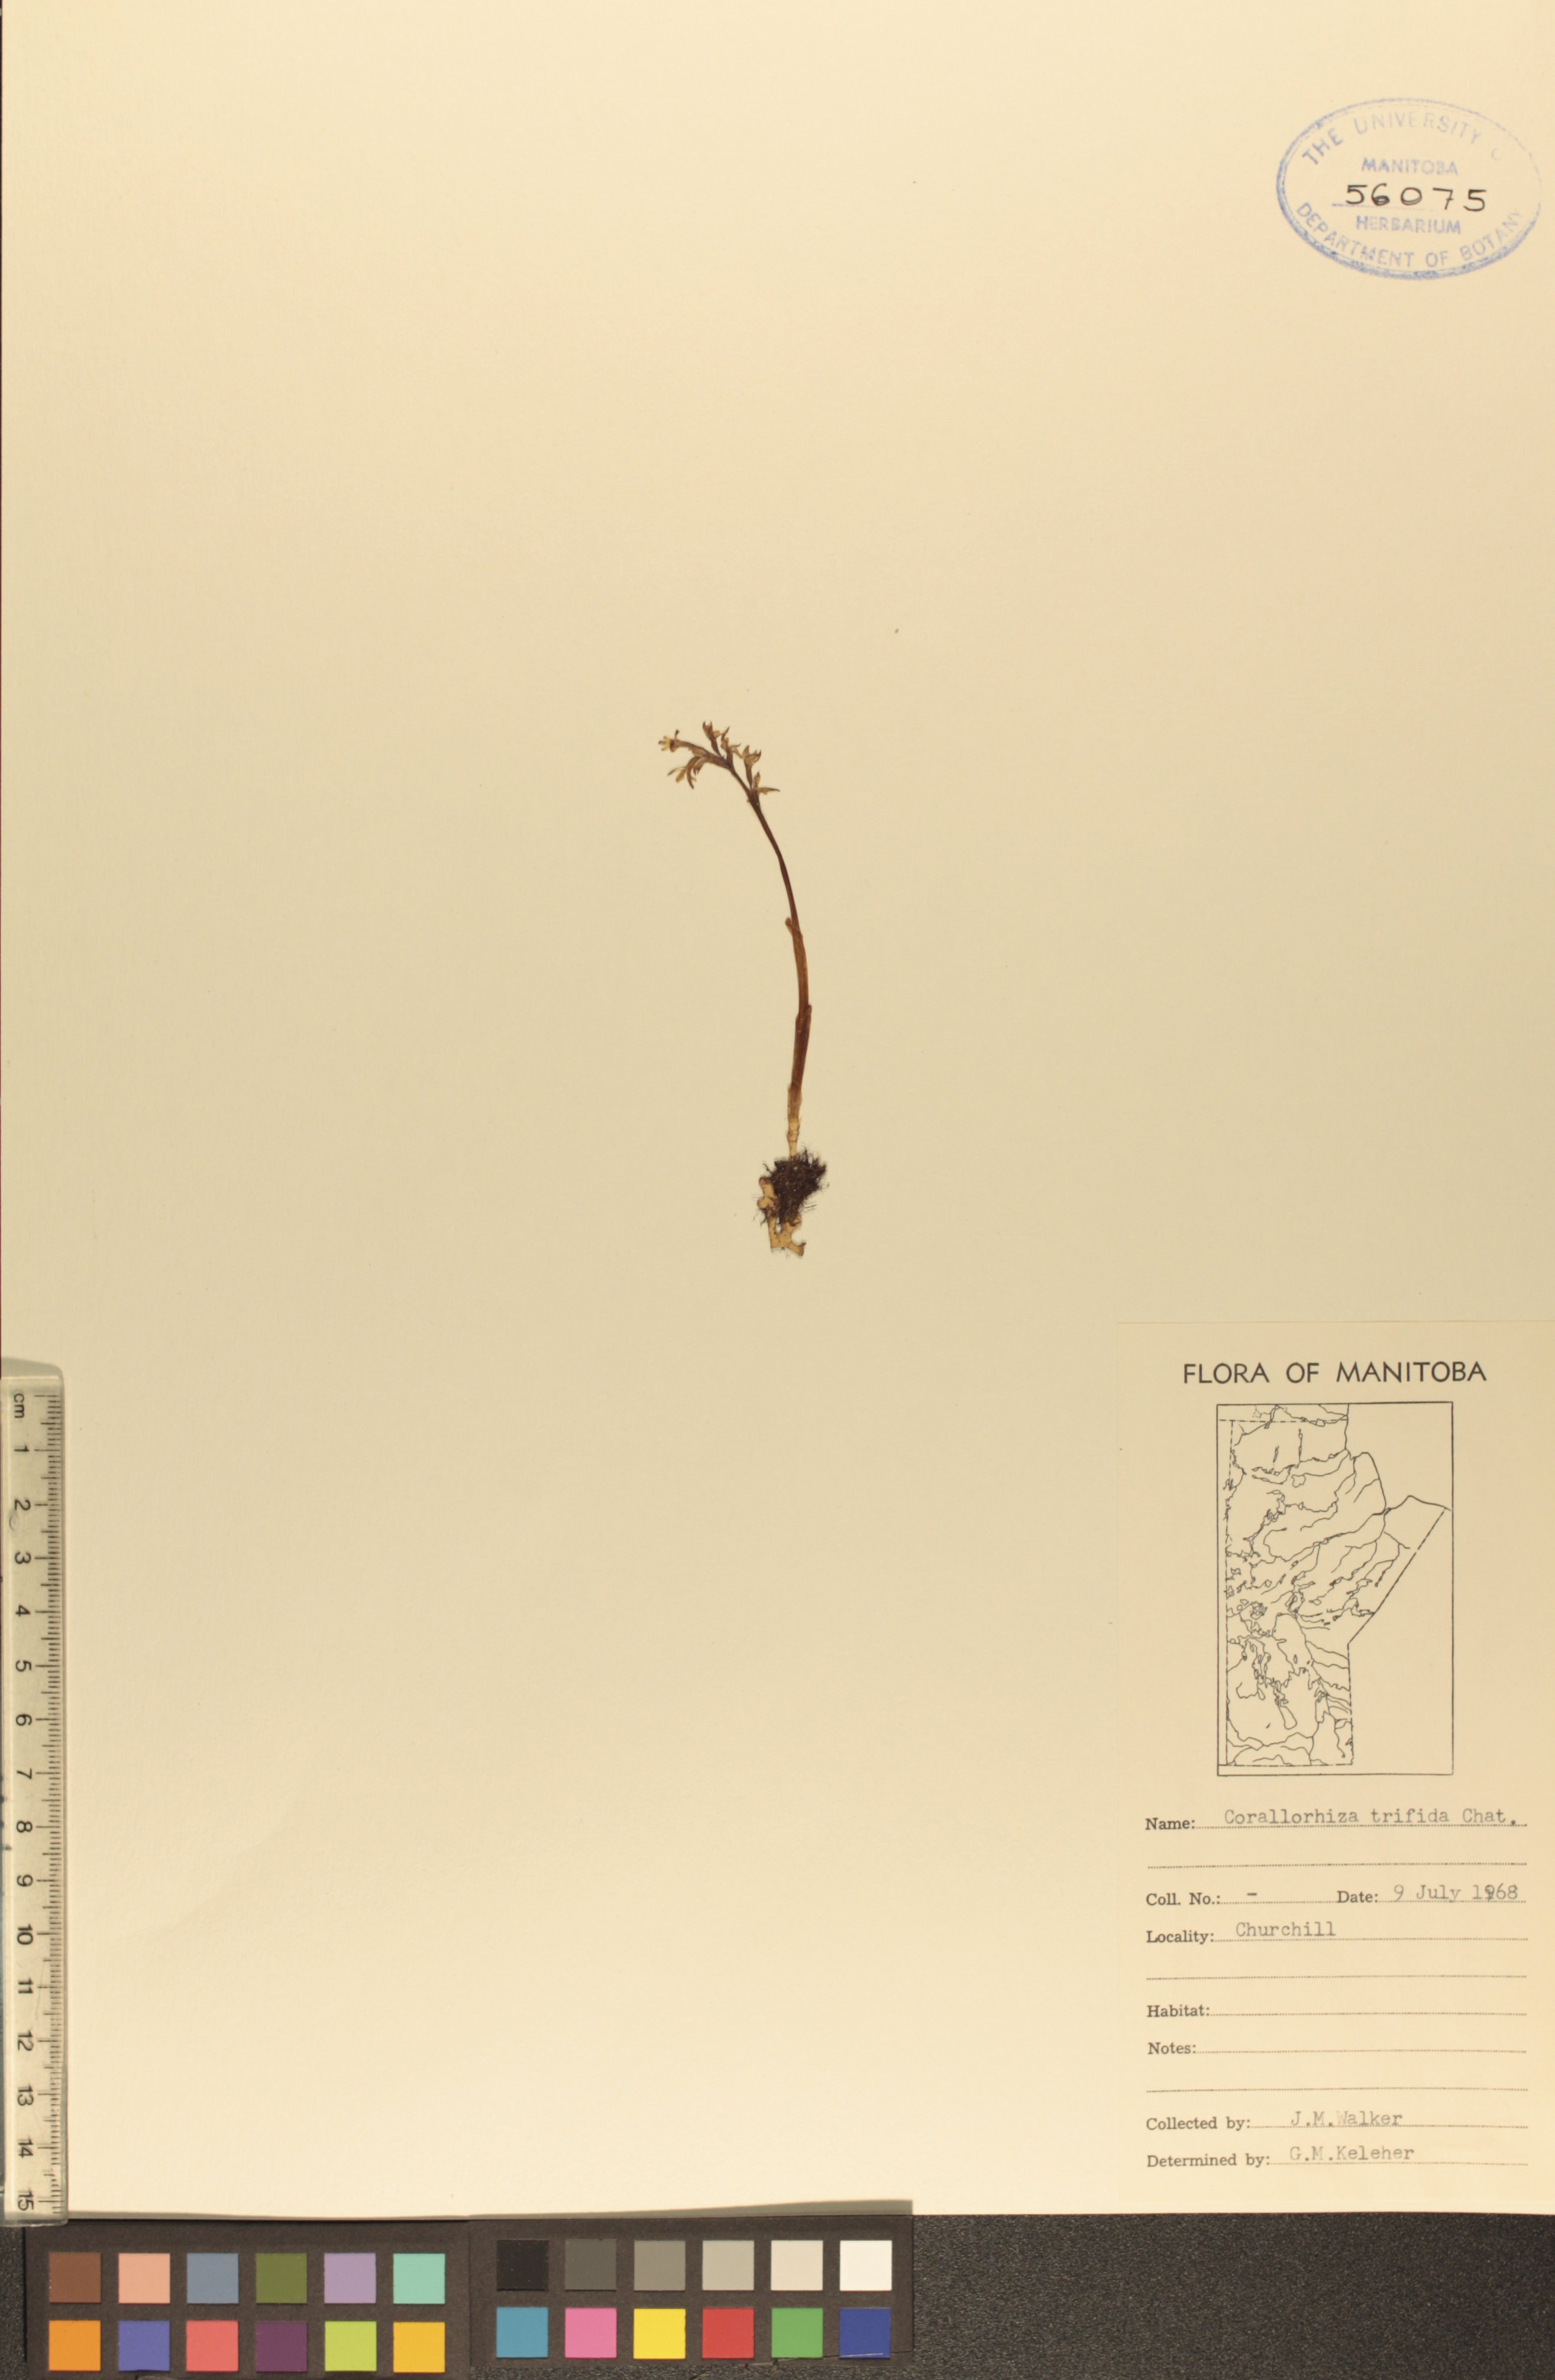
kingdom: Plantae
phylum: Tracheophyta
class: Liliopsida
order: Asparagales
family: Orchidaceae
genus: Corallorhiza
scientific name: Corallorhiza trifida
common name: Yellow coralroot
